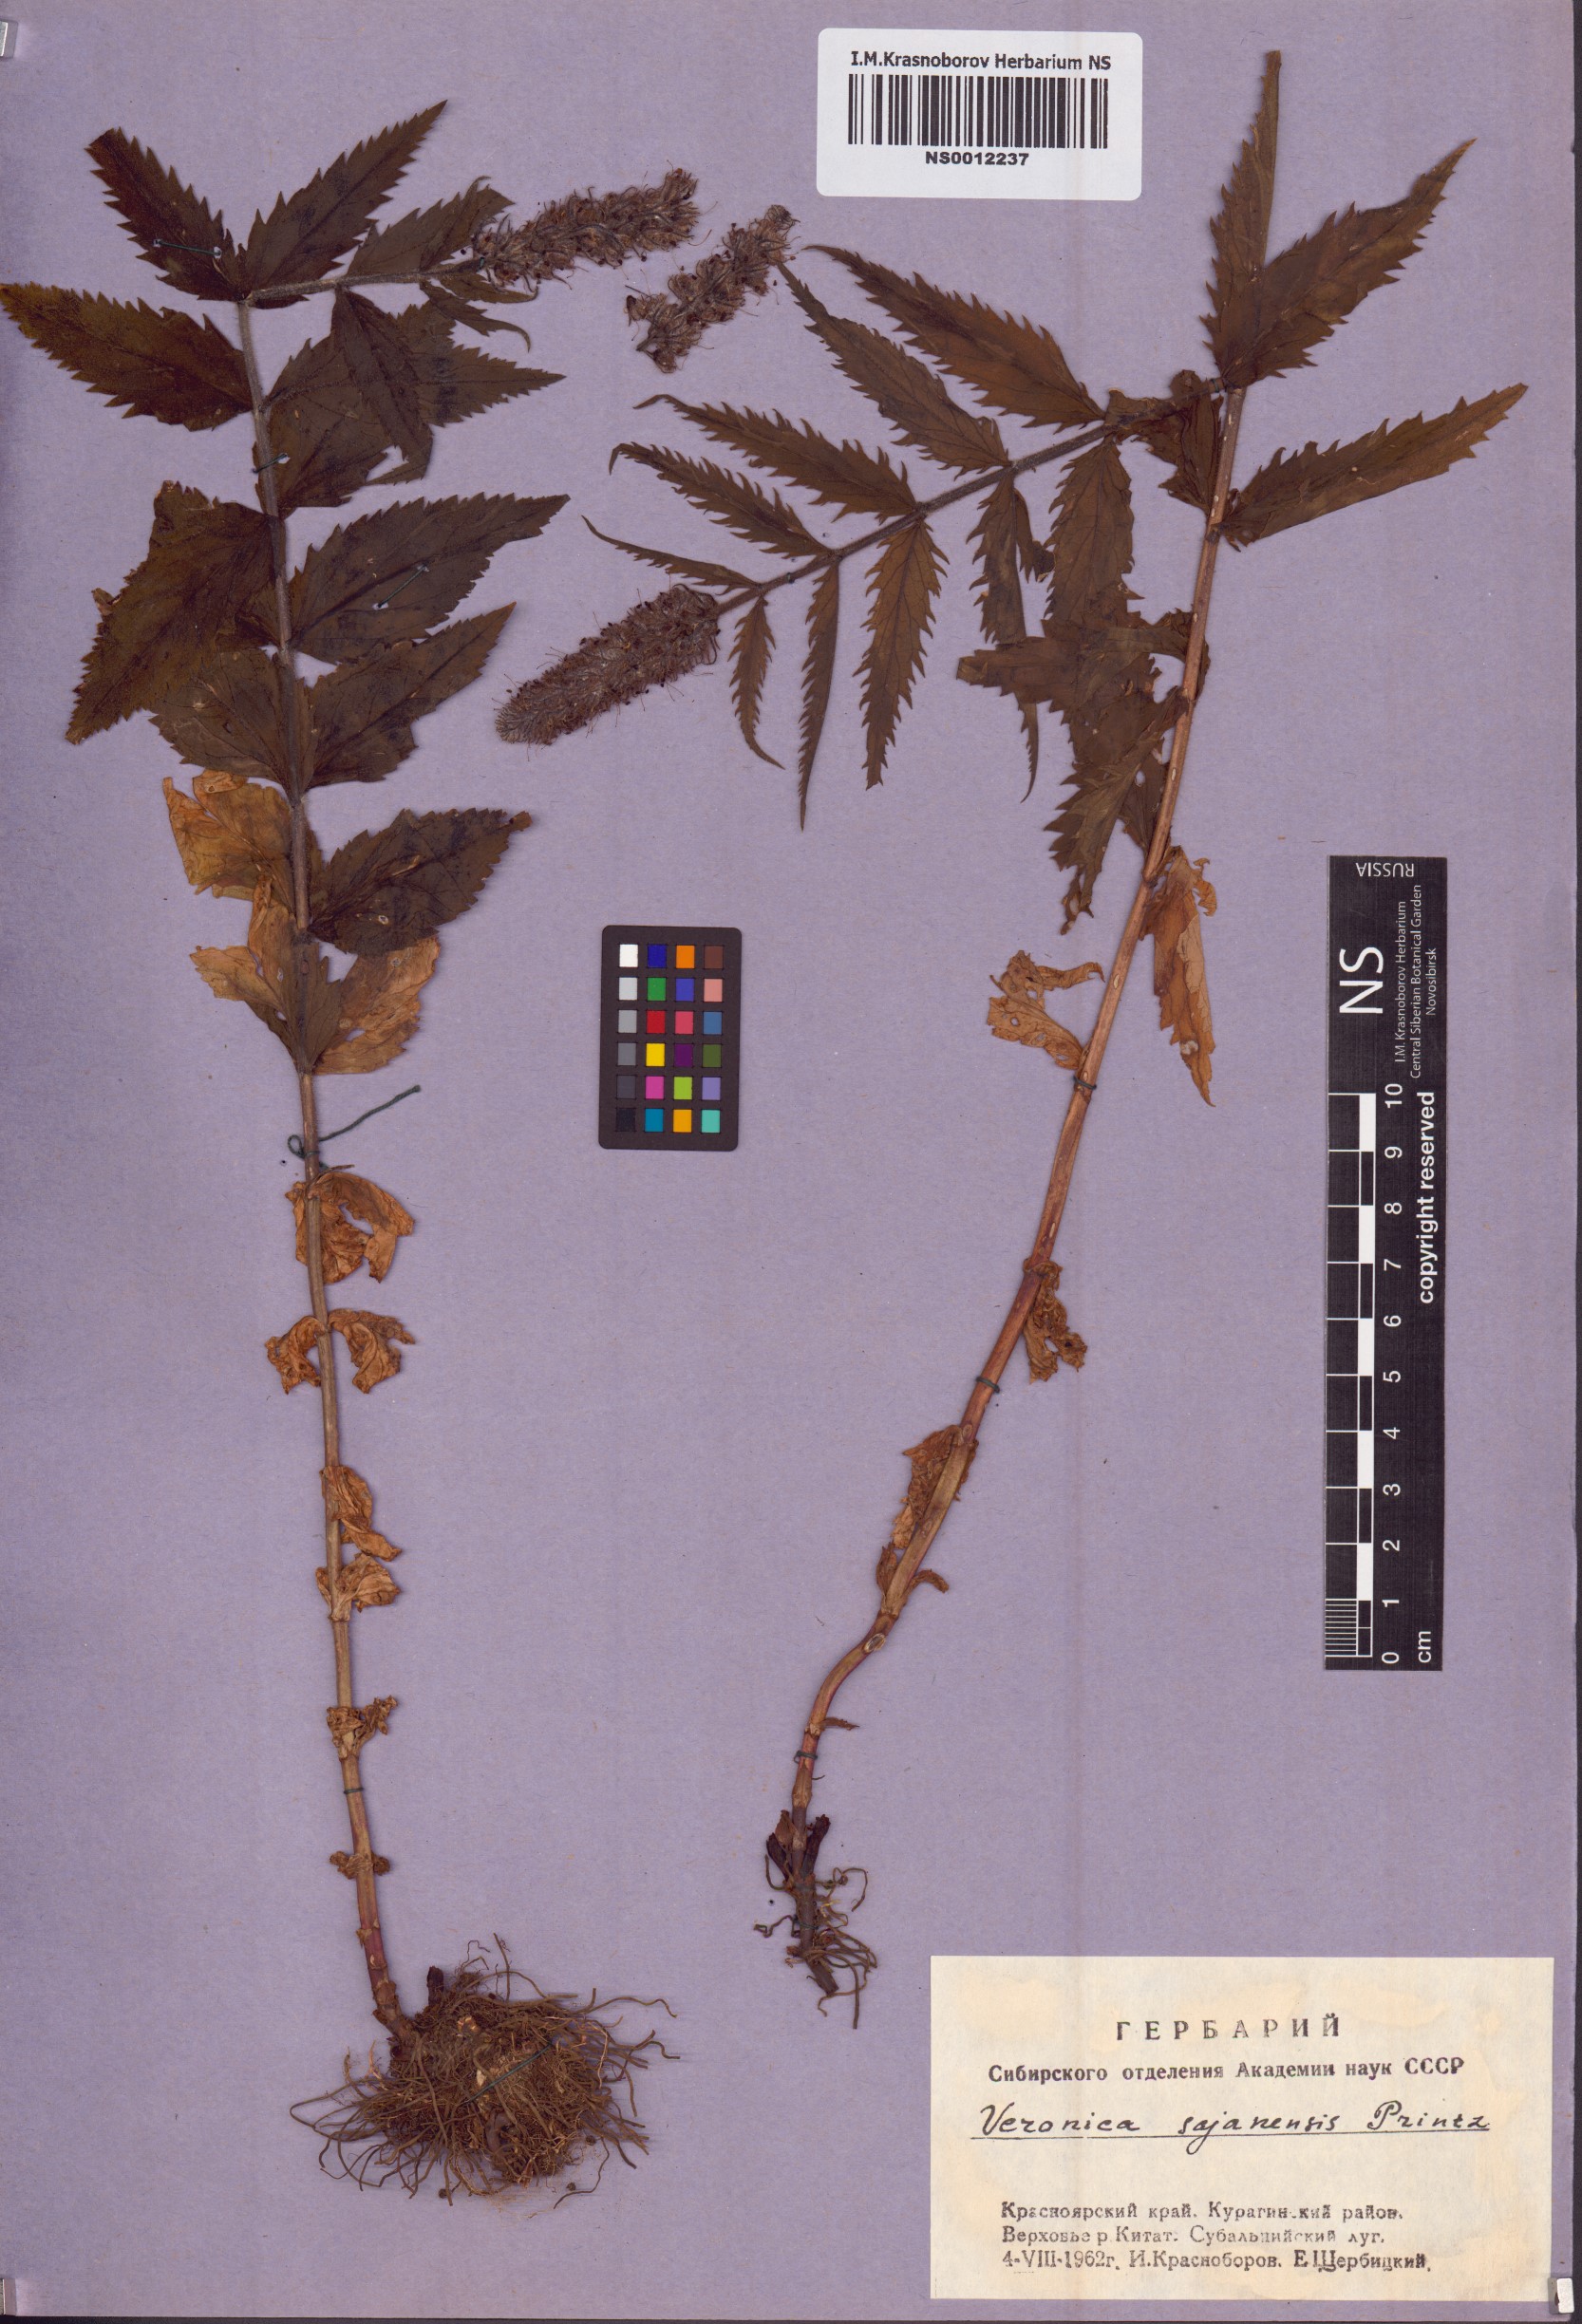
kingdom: Plantae
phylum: Tracheophyta
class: Magnoliopsida
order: Lamiales
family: Plantaginaceae
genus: Veronica
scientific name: Veronica sajanensis
